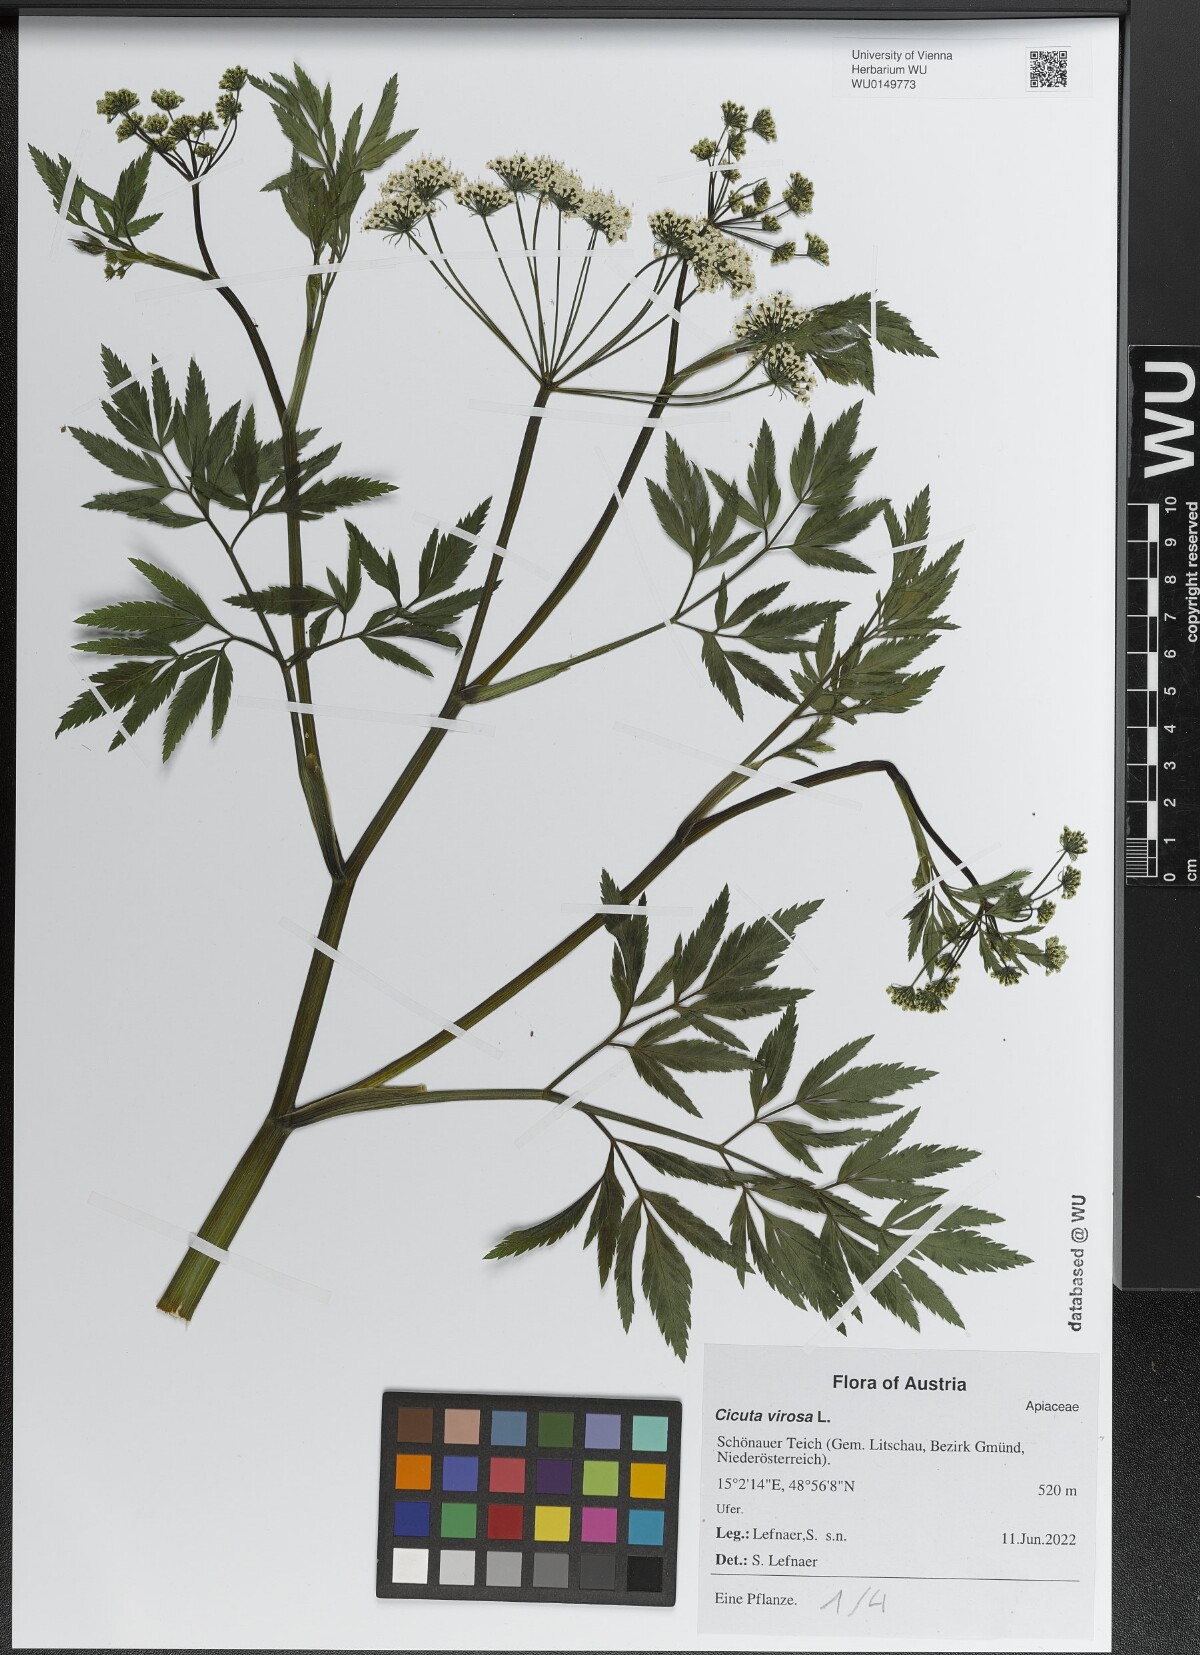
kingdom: Plantae
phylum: Tracheophyta
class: Magnoliopsida
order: Apiales
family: Apiaceae
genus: Cicuta
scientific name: Cicuta virosa
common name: Cowbane
